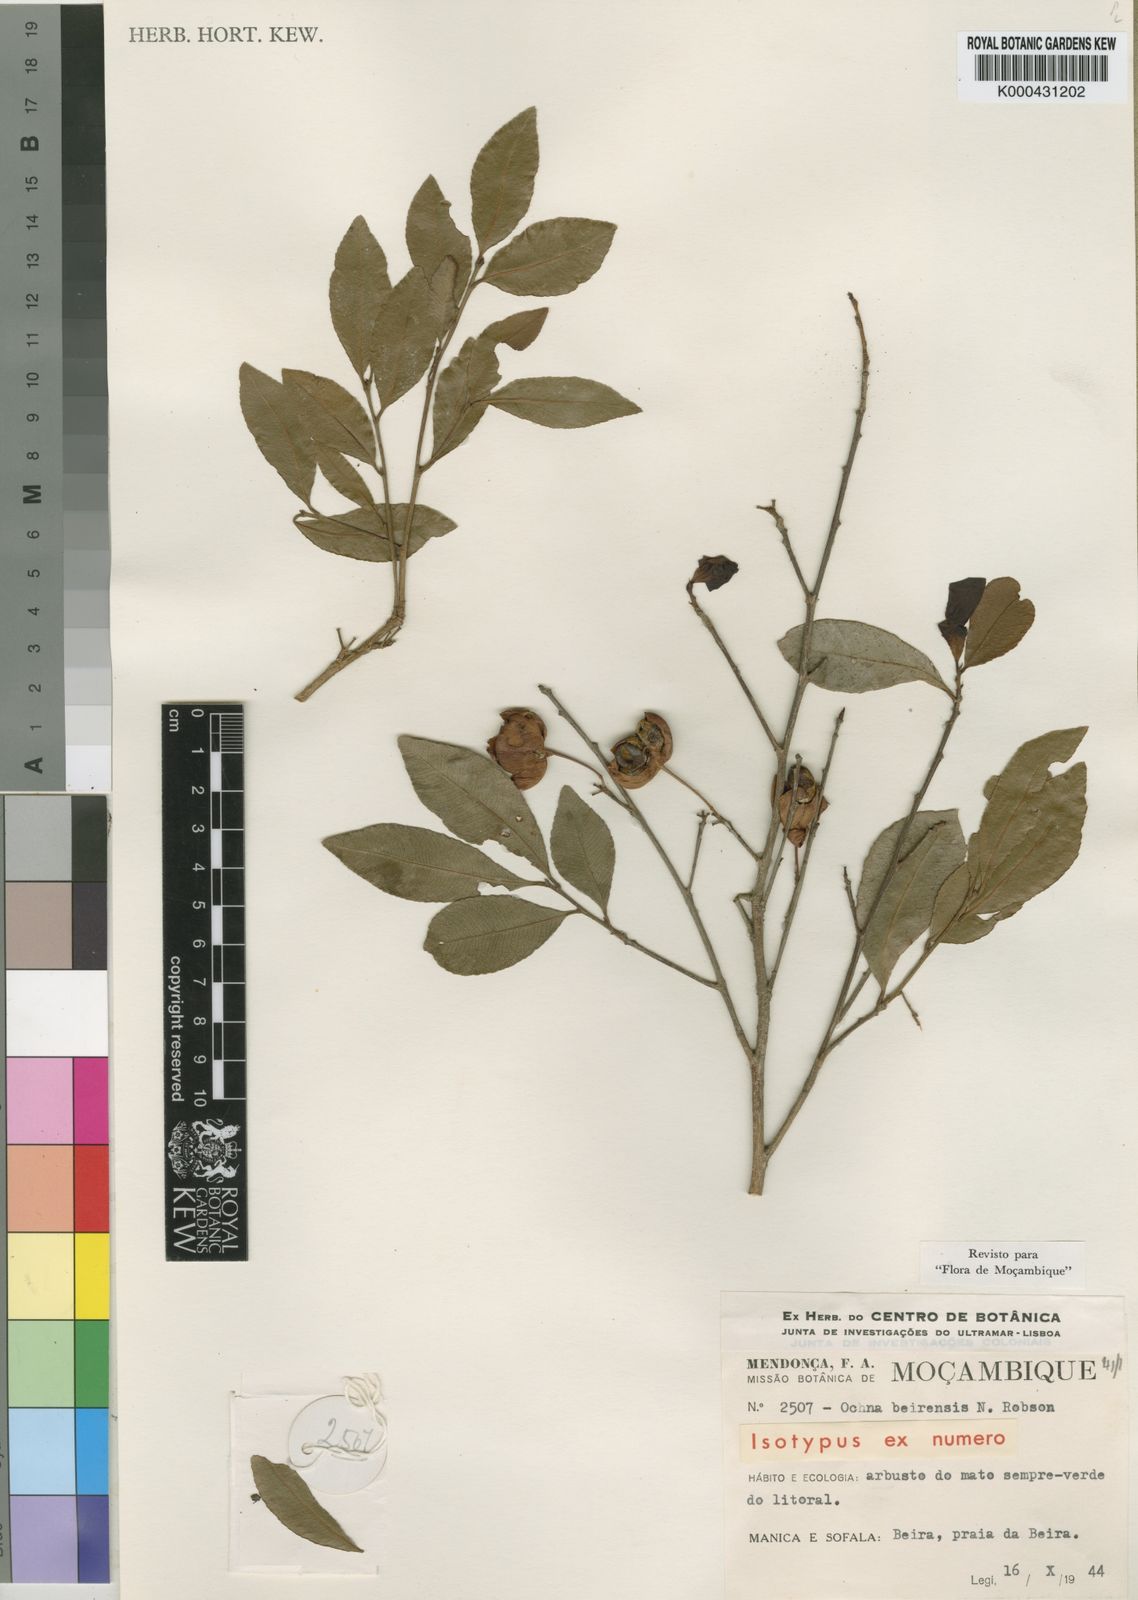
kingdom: Plantae
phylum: Tracheophyta
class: Magnoliopsida
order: Malpighiales
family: Ochnaceae
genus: Ochna
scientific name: Ochna beirensis
